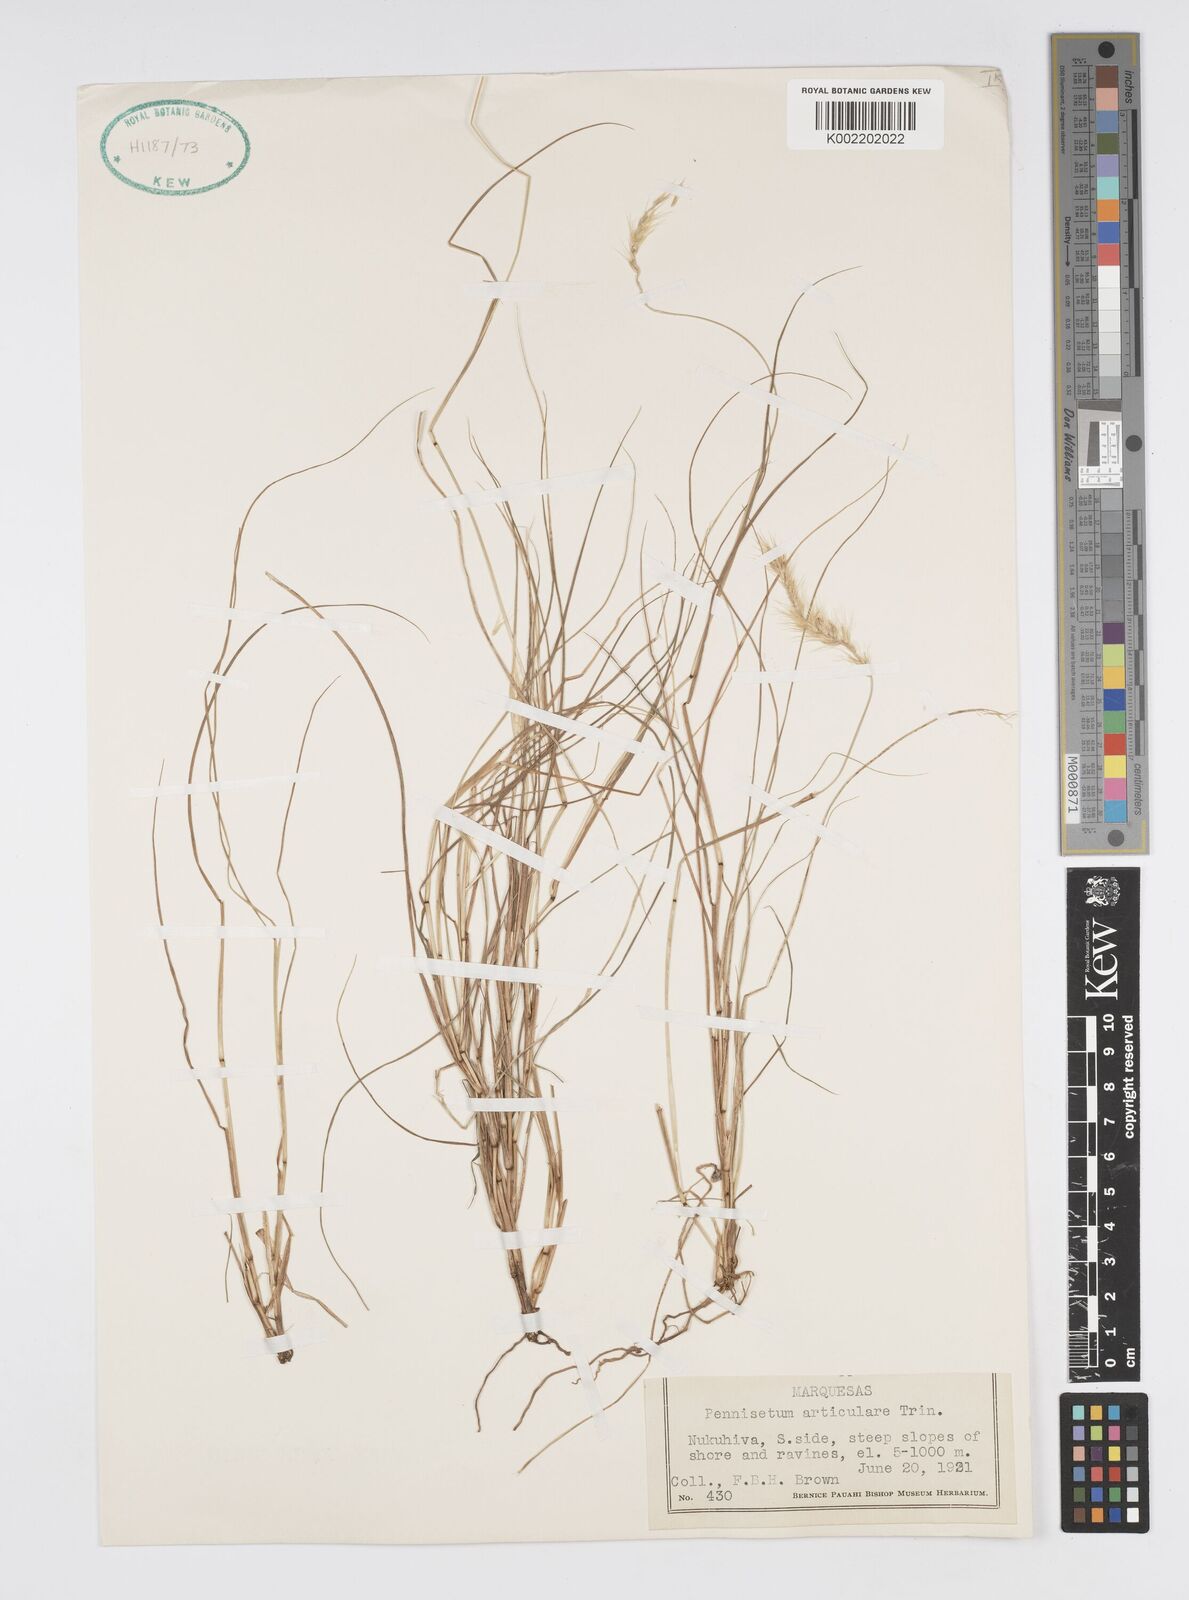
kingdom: Plantae
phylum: Tracheophyta
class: Liliopsida
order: Poales
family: Poaceae
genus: Cenchrus
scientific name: Cenchrus articularis
